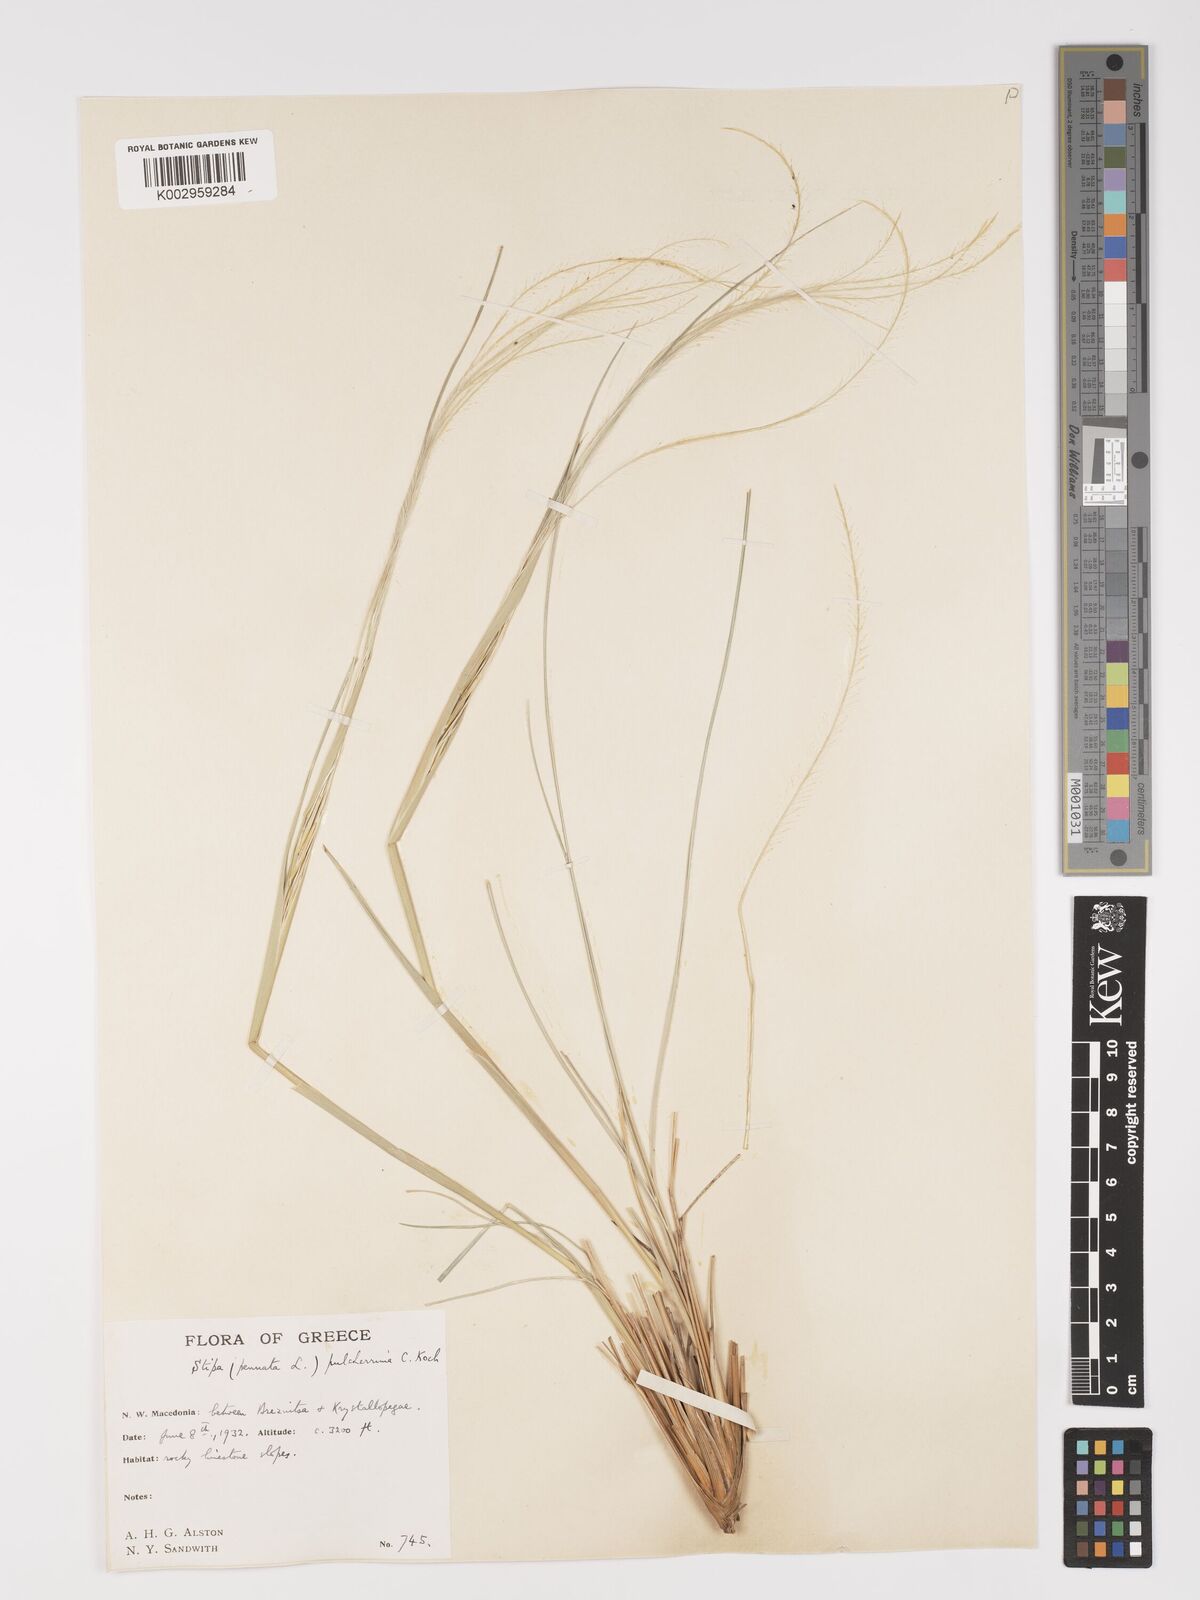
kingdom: Plantae
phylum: Tracheophyta
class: Liliopsida
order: Poales
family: Poaceae
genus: Stipa
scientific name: Stipa pulcherrima
